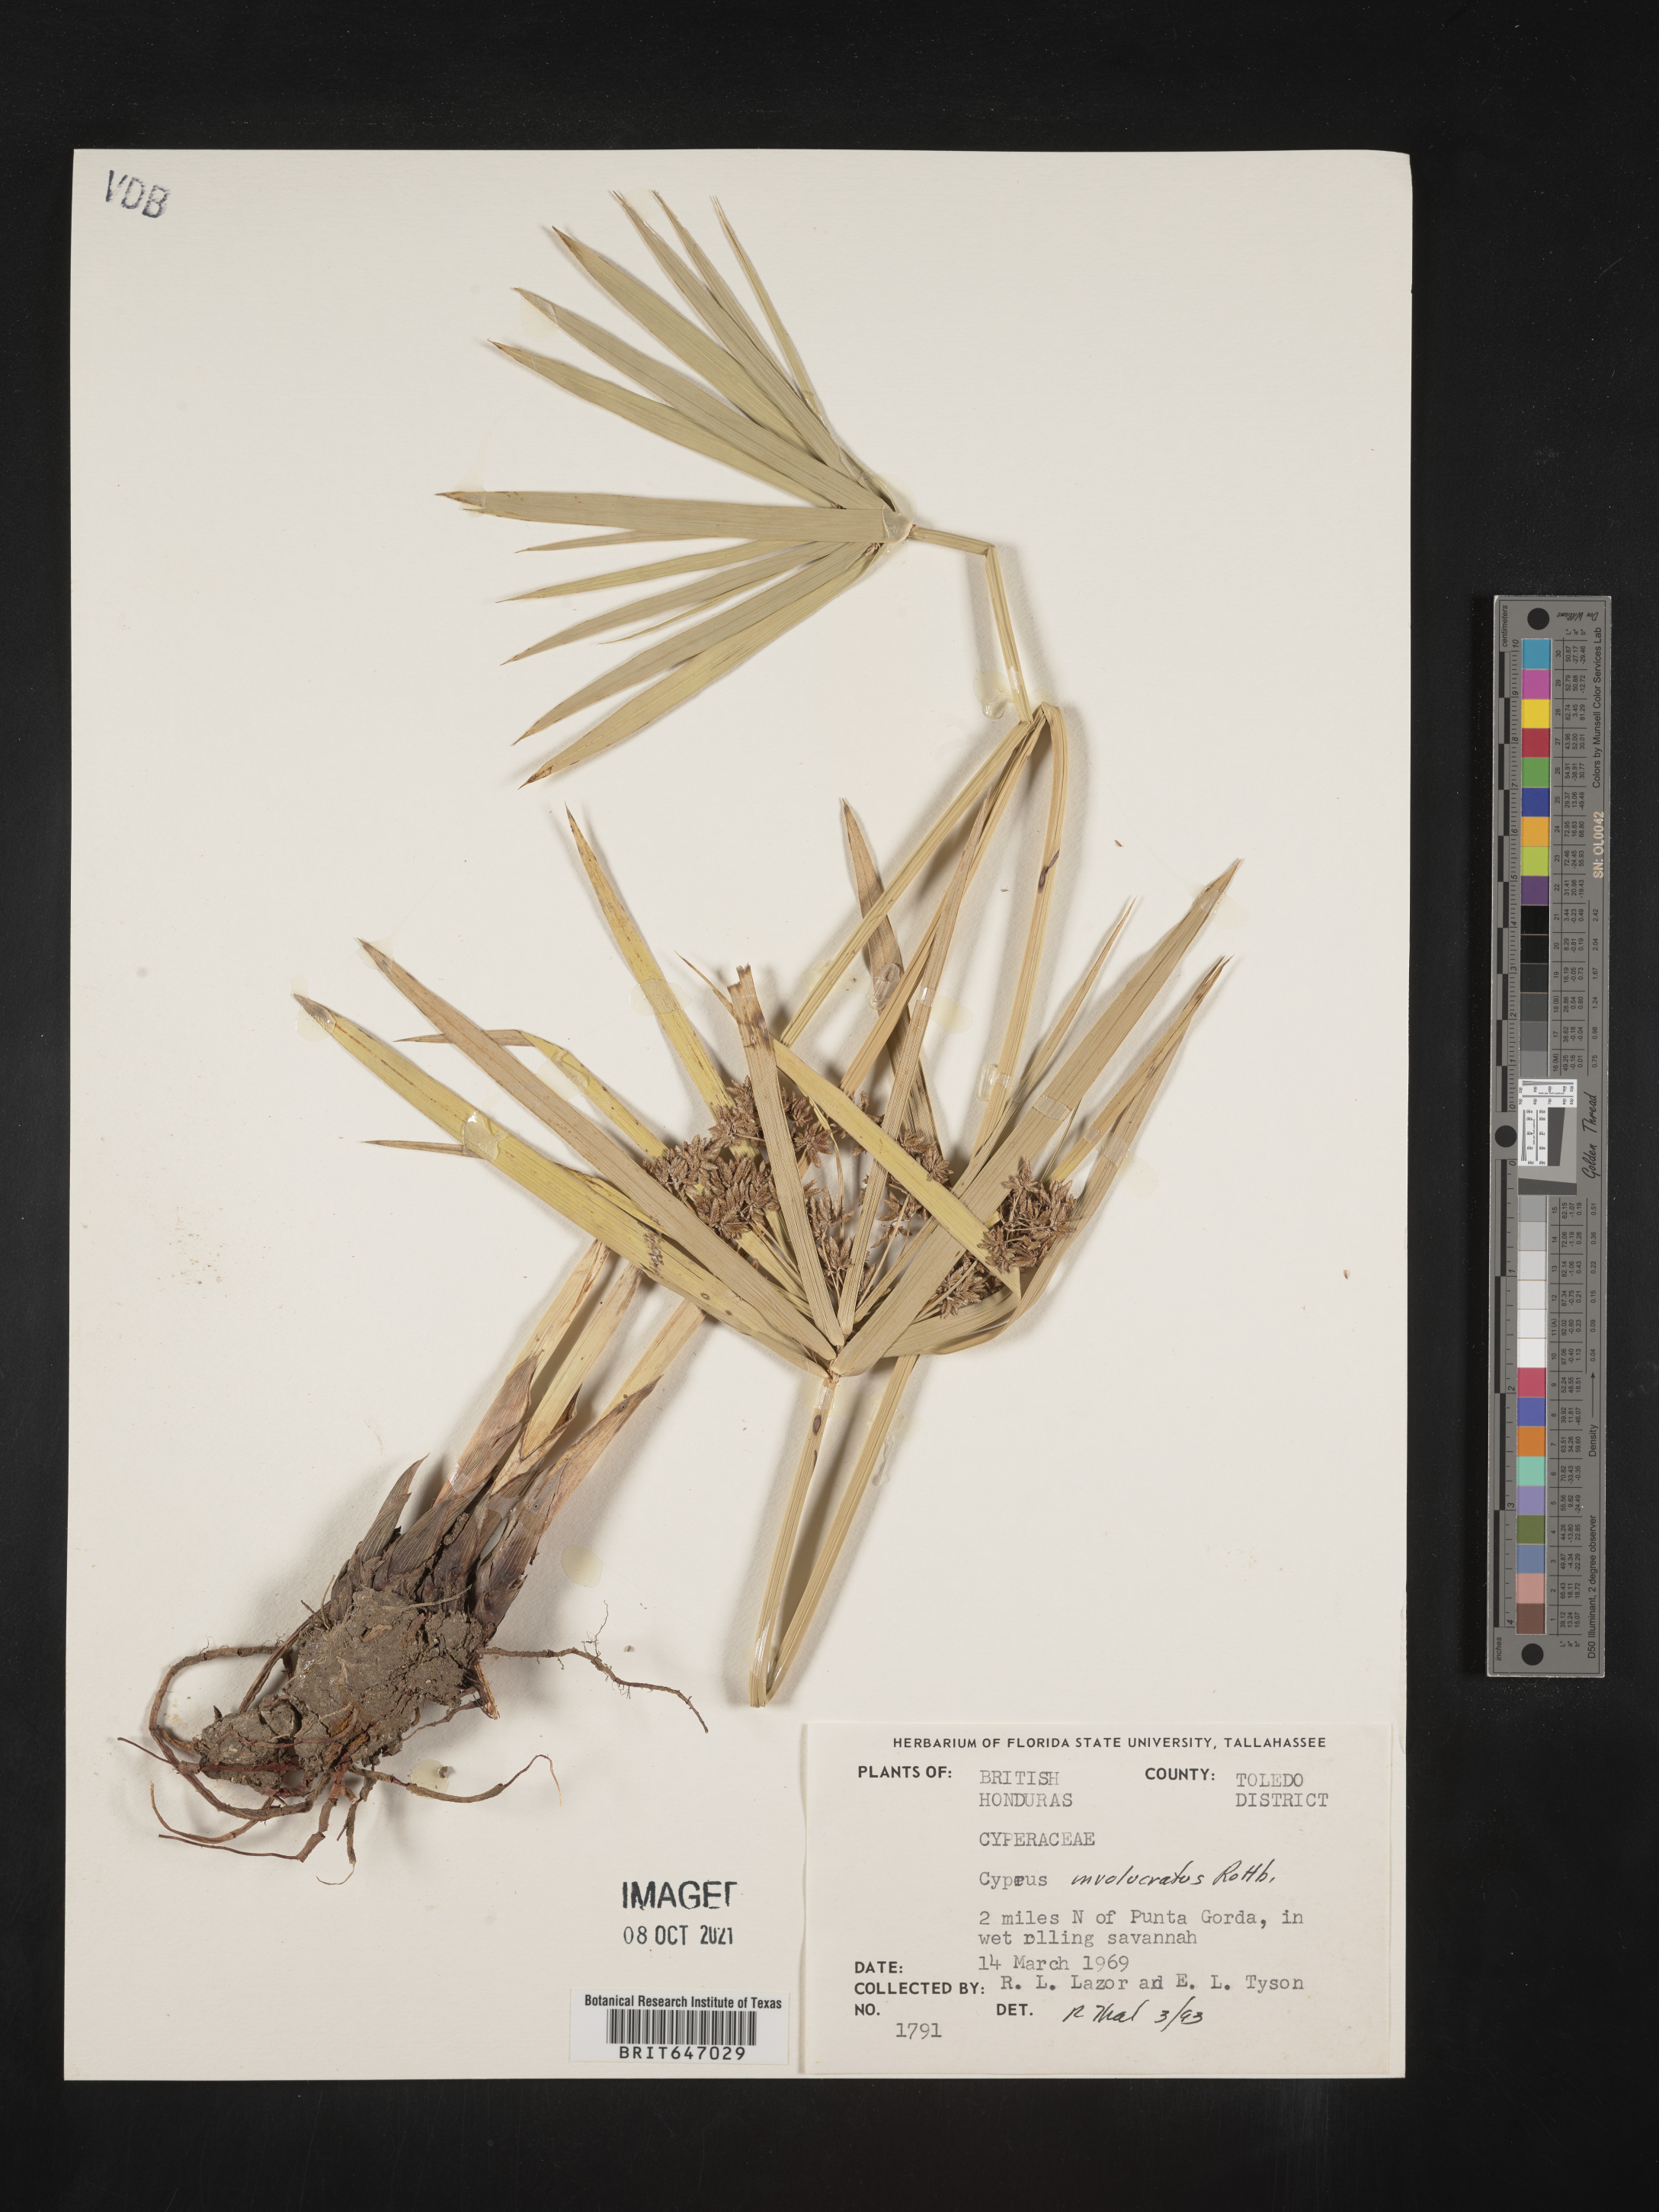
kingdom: Plantae
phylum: Tracheophyta
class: Liliopsida
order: Poales
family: Cyperaceae
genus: Cyperus
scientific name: Cyperus alternifolius
